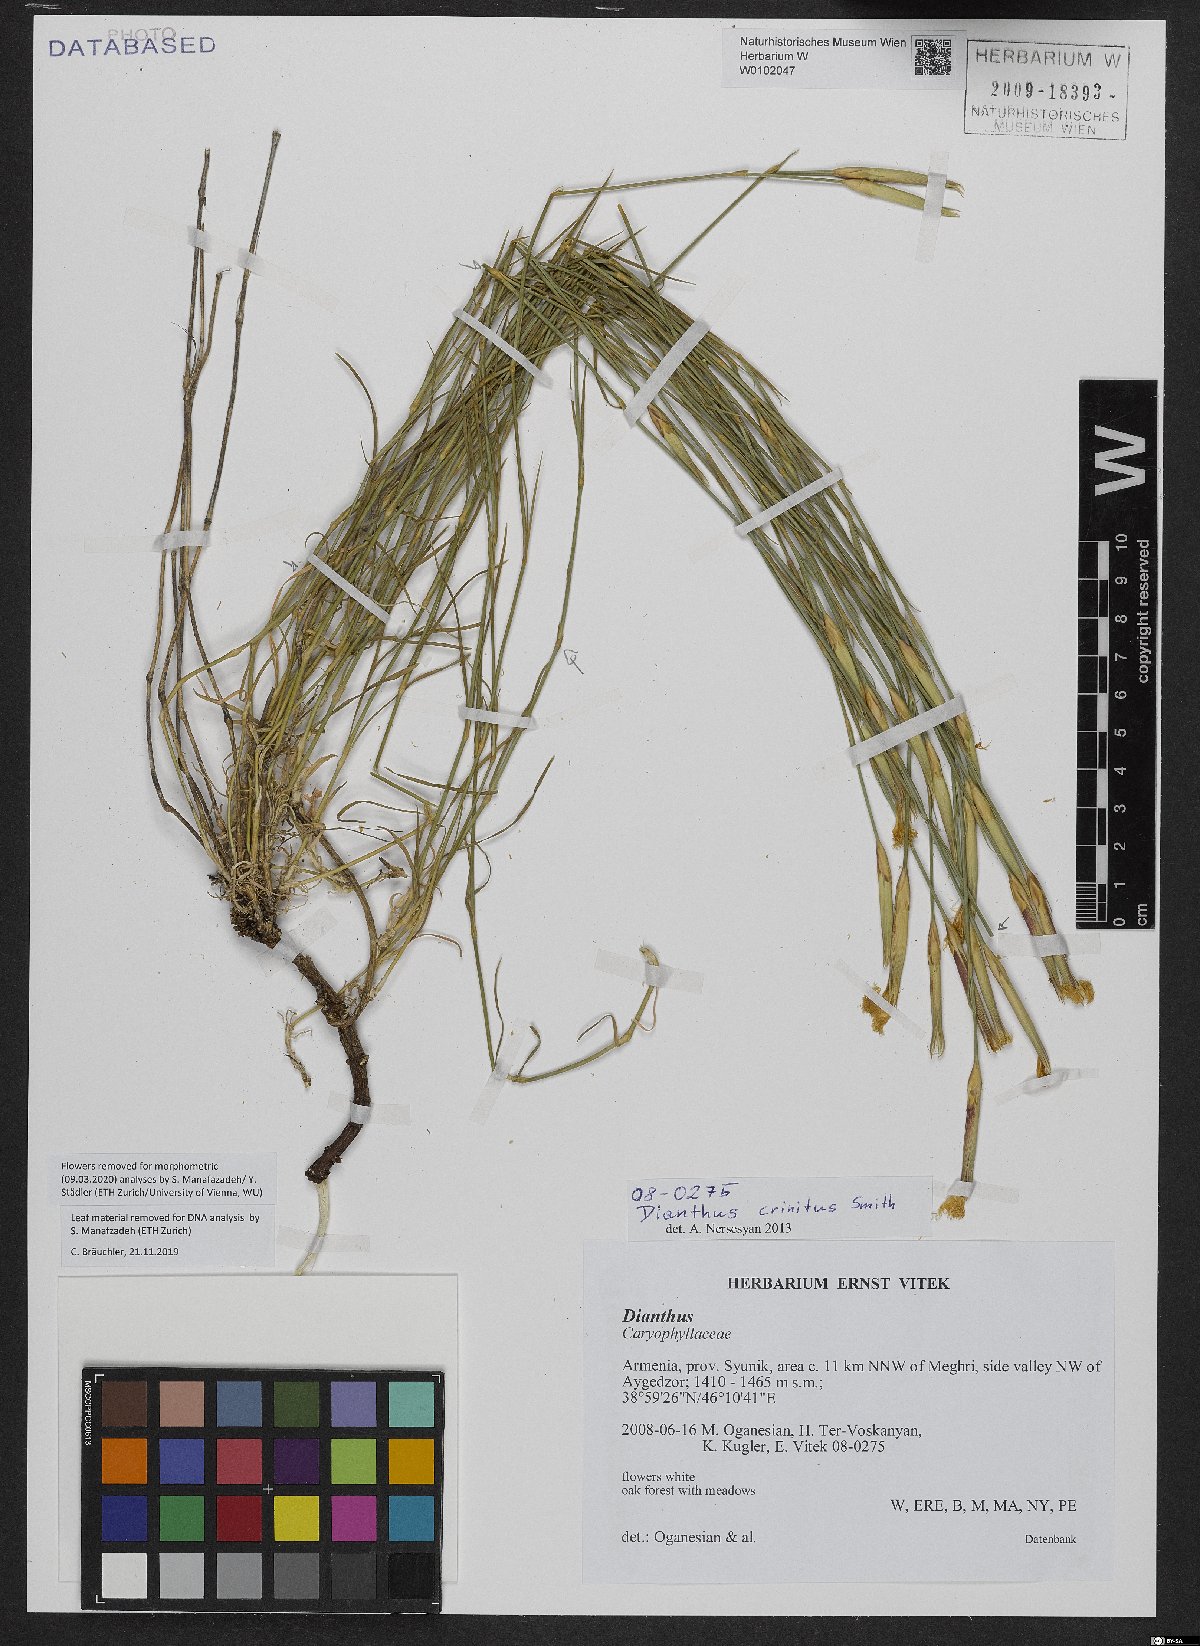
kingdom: Plantae
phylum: Tracheophyta
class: Magnoliopsida
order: Caryophyllales
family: Caryophyllaceae
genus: Dianthus
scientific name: Dianthus crinitus
